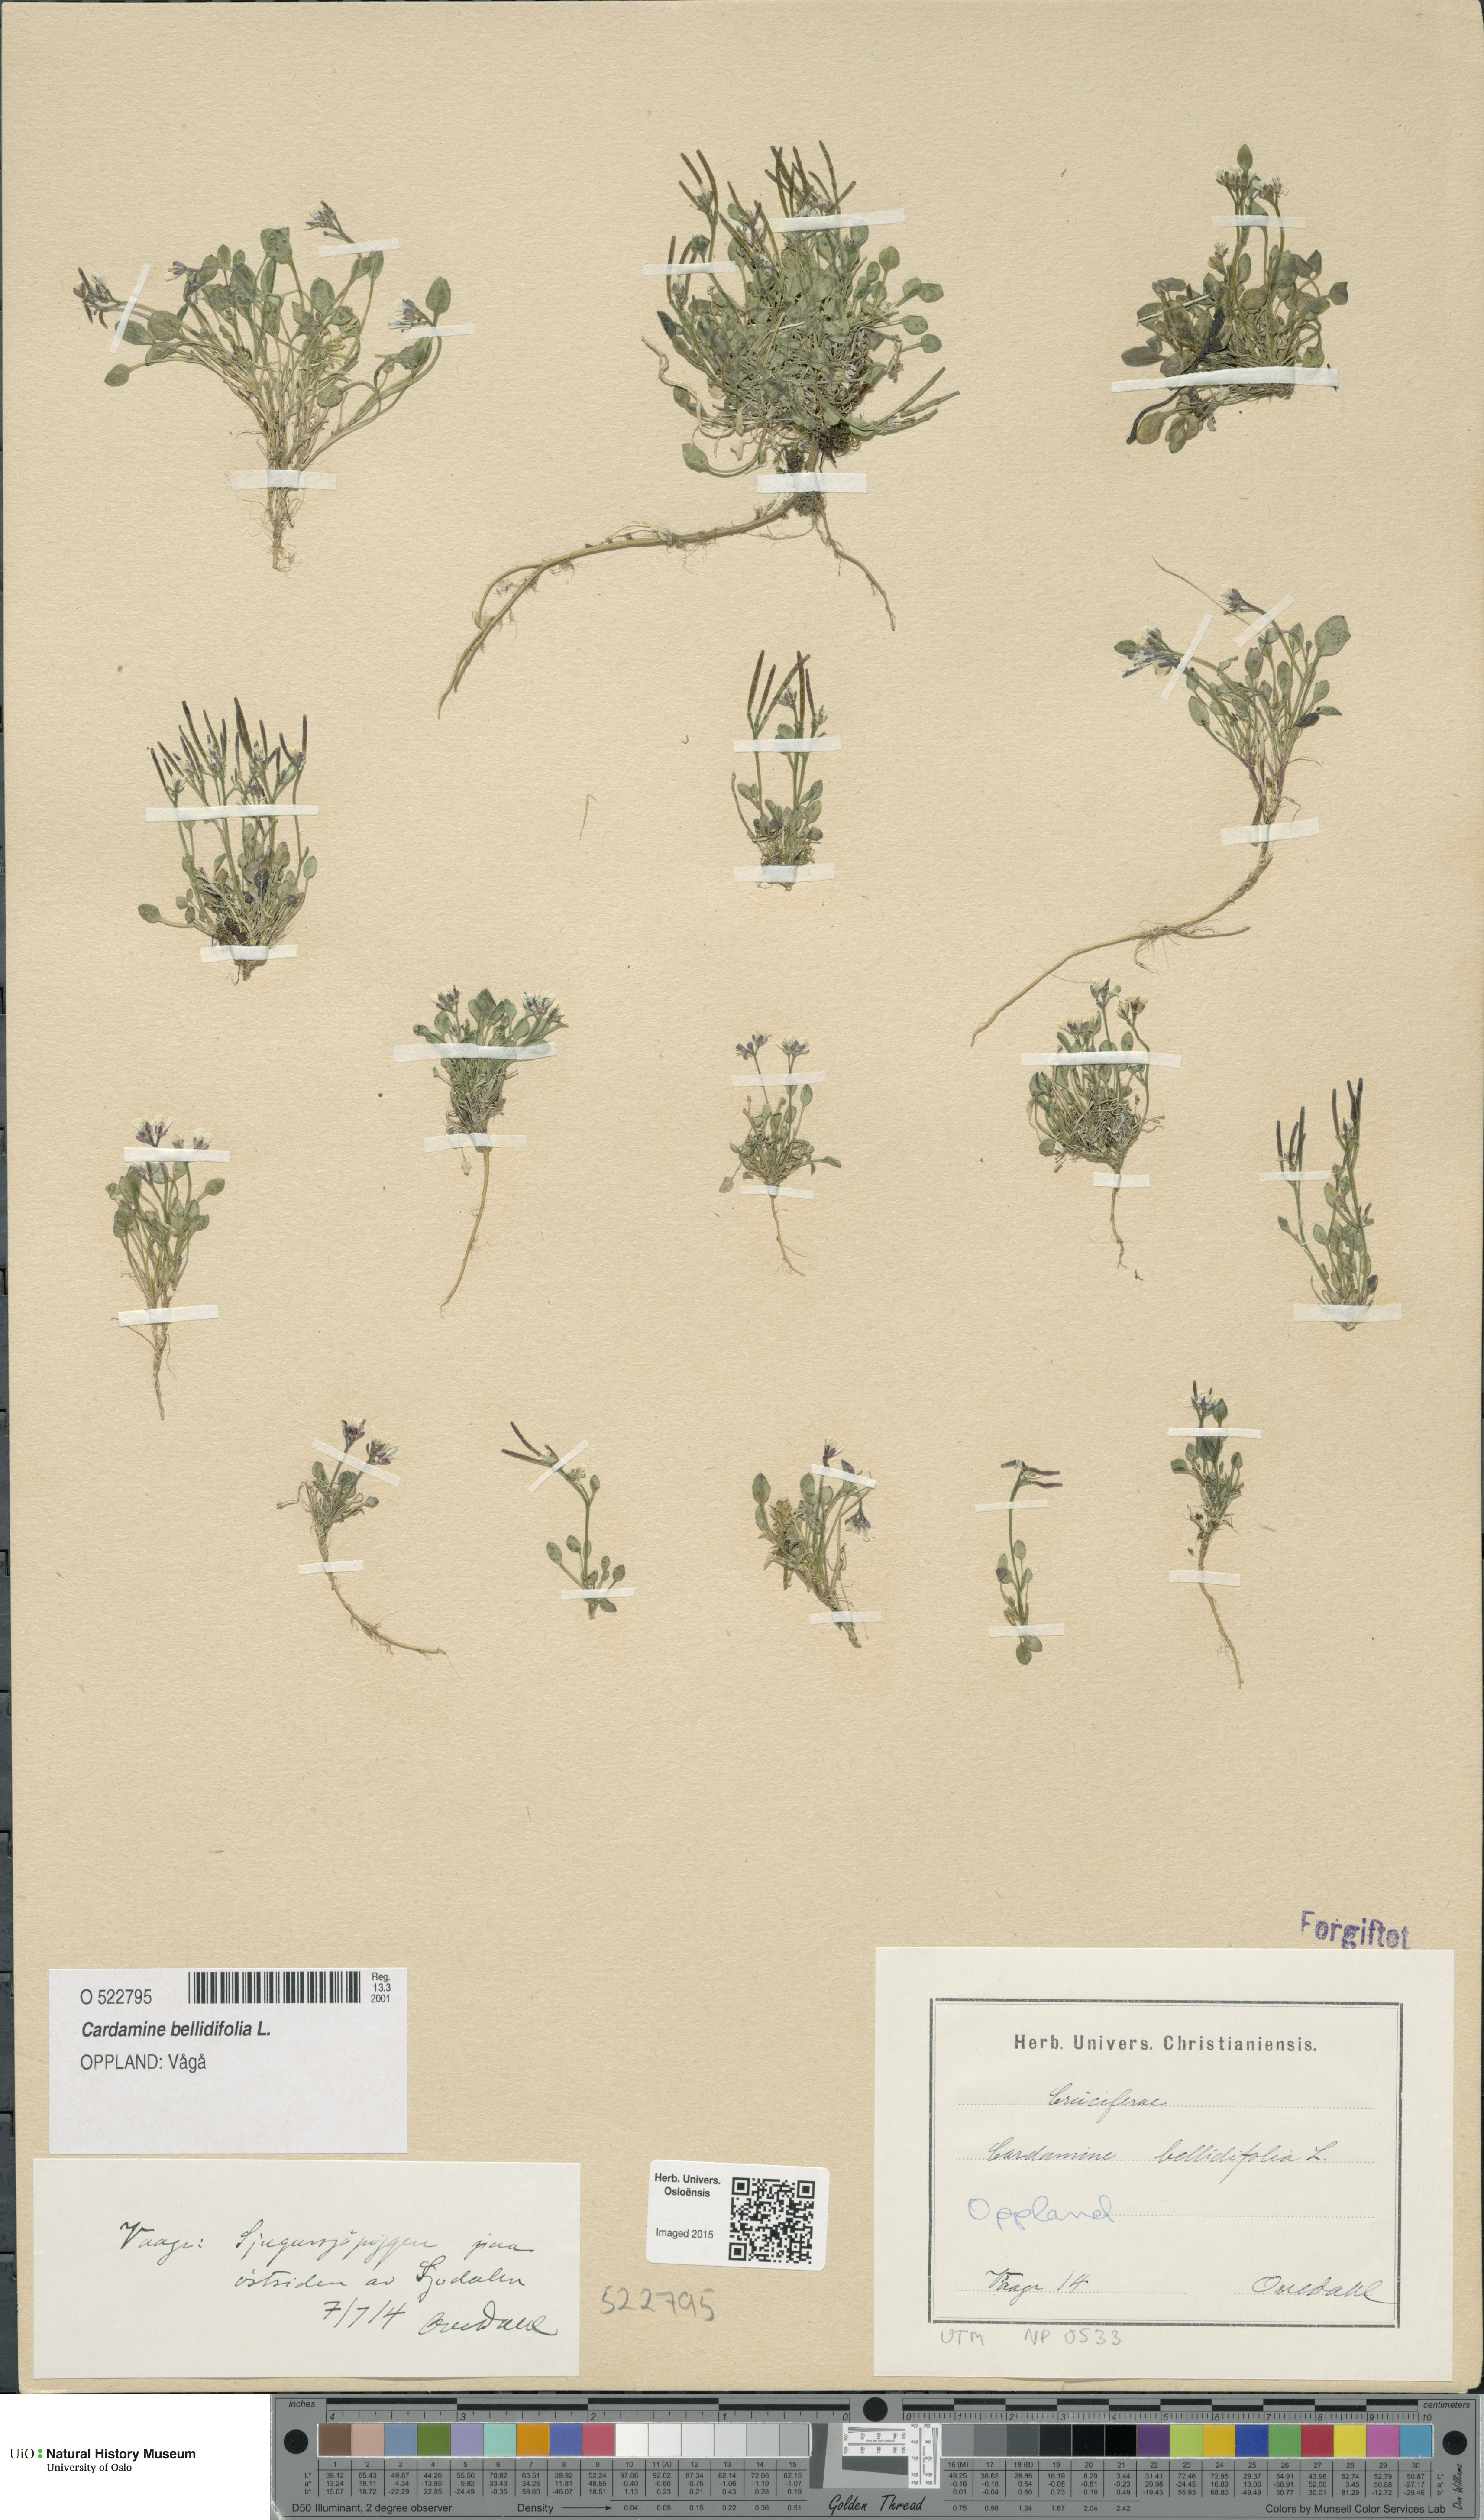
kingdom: Plantae
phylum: Tracheophyta
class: Magnoliopsida
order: Brassicales
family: Brassicaceae
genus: Cardamine
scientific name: Cardamine bellidifolia
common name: Alpine bittercress
